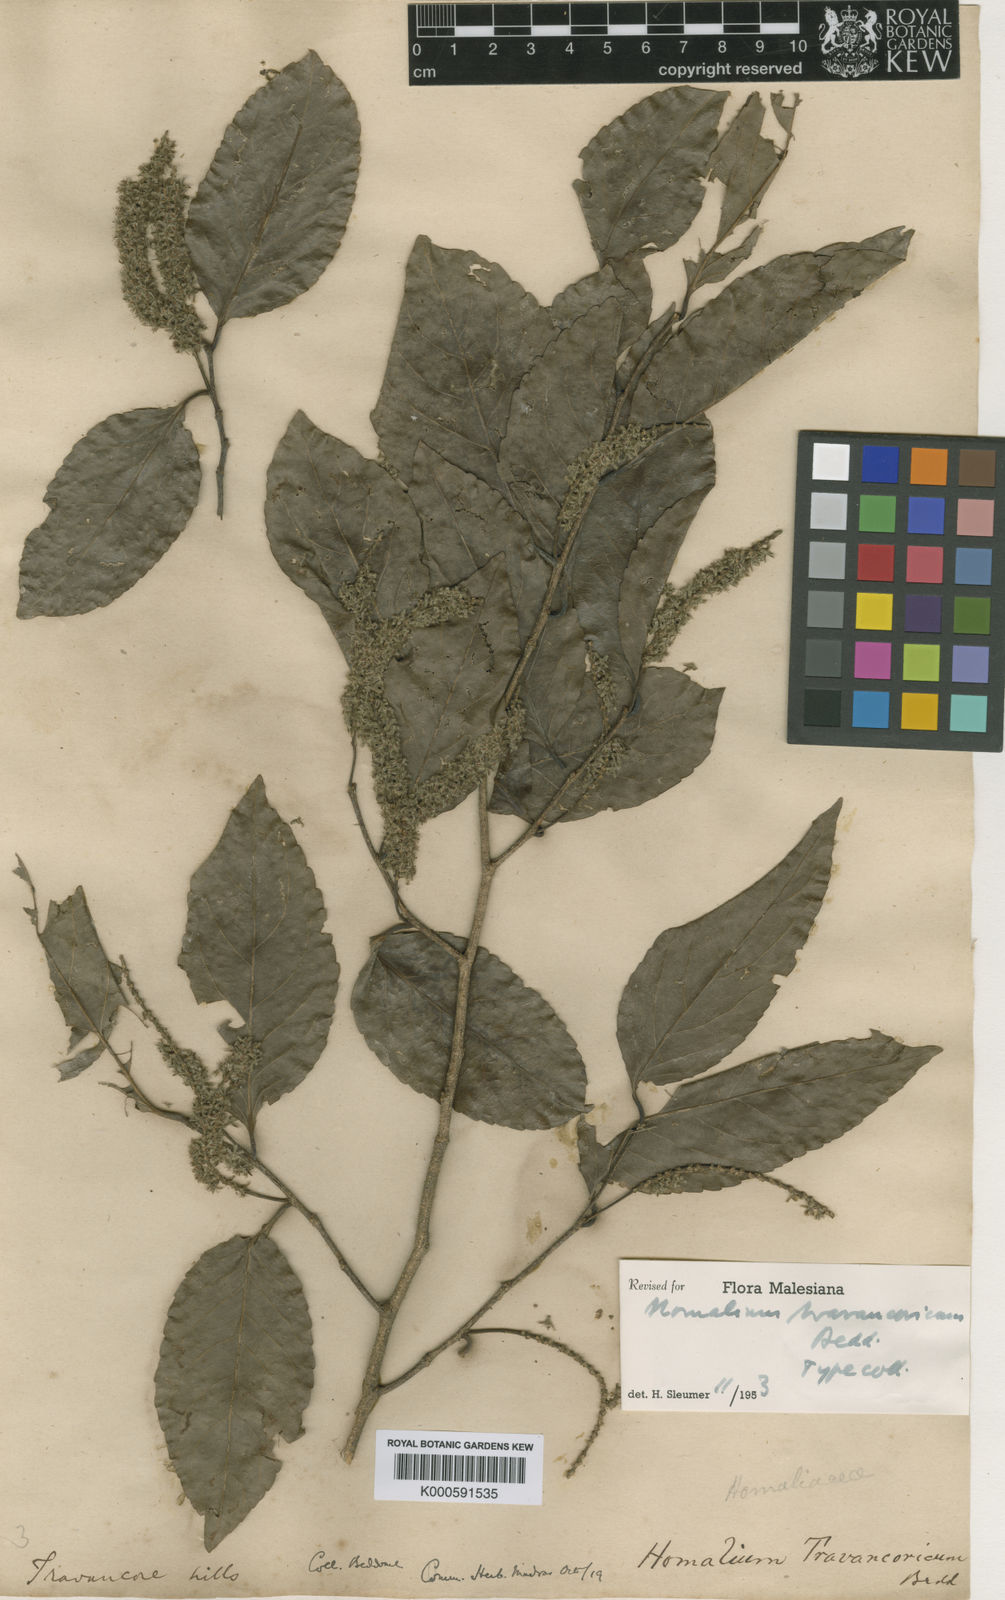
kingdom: Plantae
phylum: Tracheophyta
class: Magnoliopsida
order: Malpighiales
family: Salicaceae
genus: Homalium
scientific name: Homalium travancoricum
